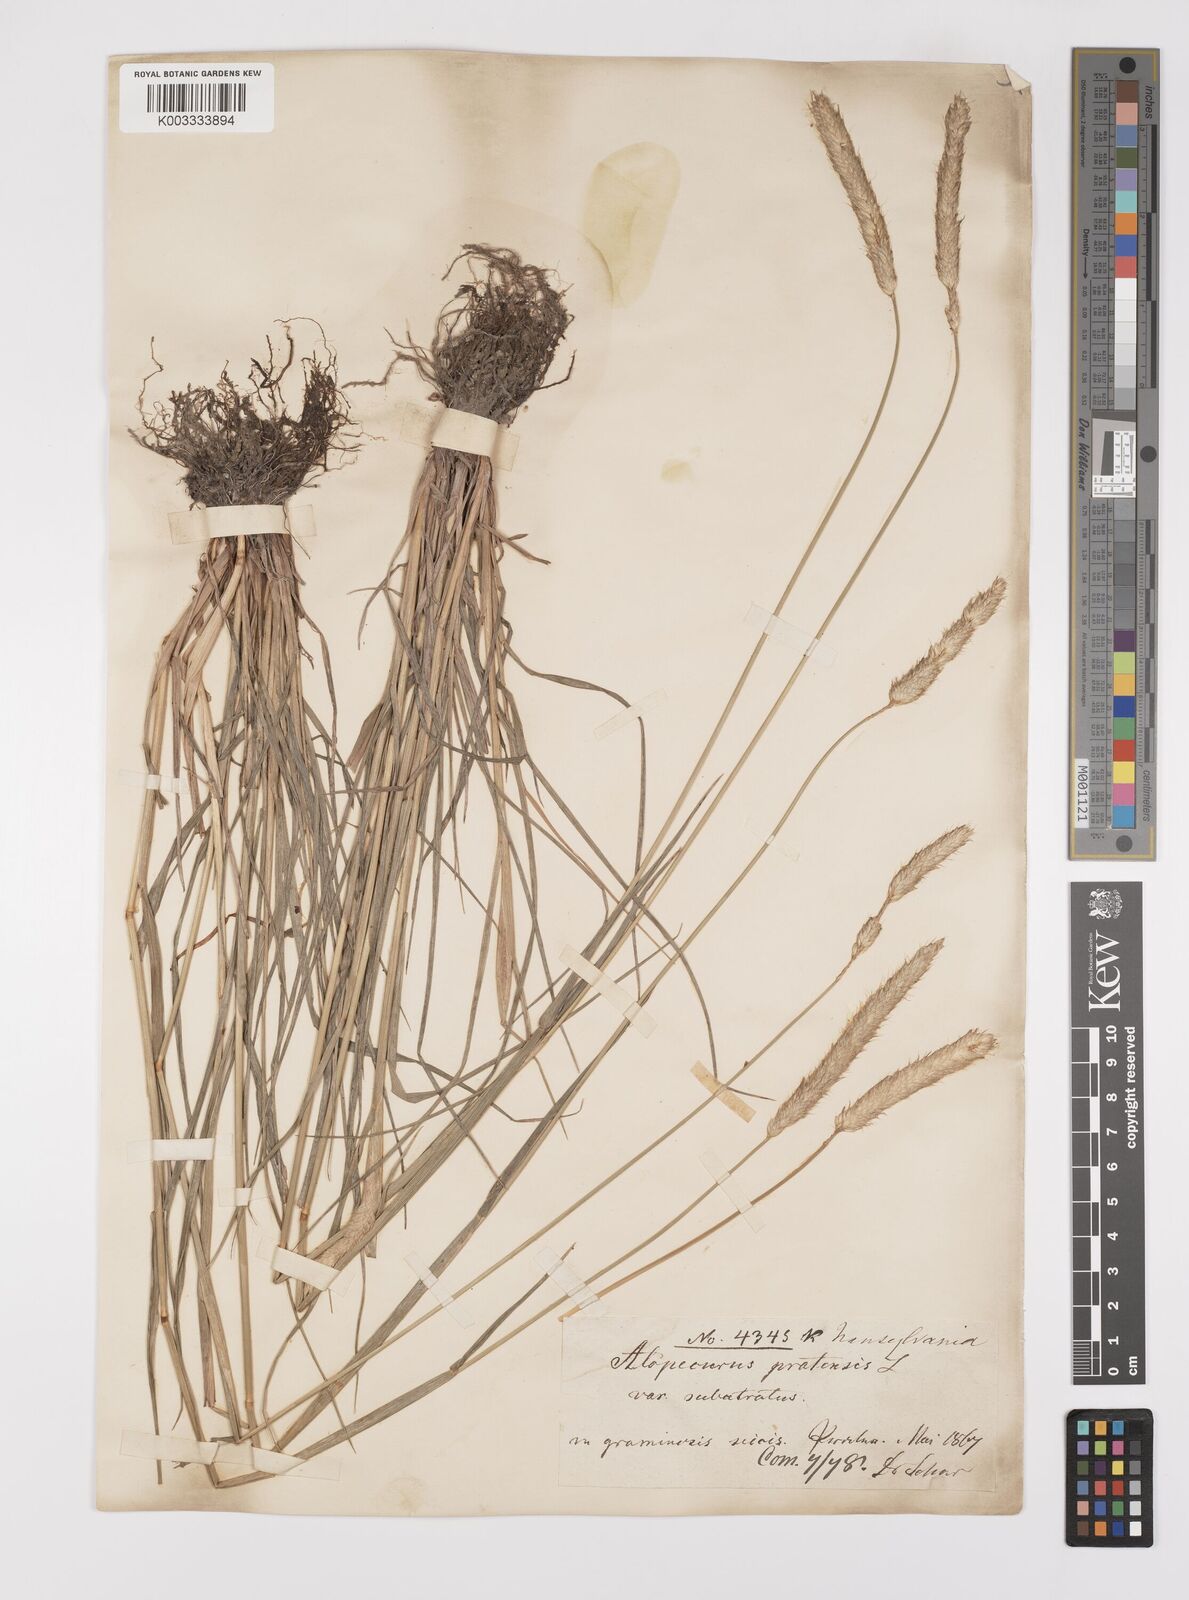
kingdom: Plantae
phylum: Tracheophyta
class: Liliopsida
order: Poales
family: Poaceae
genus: Alopecurus
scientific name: Alopecurus pratensis
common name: Meadow foxtail
